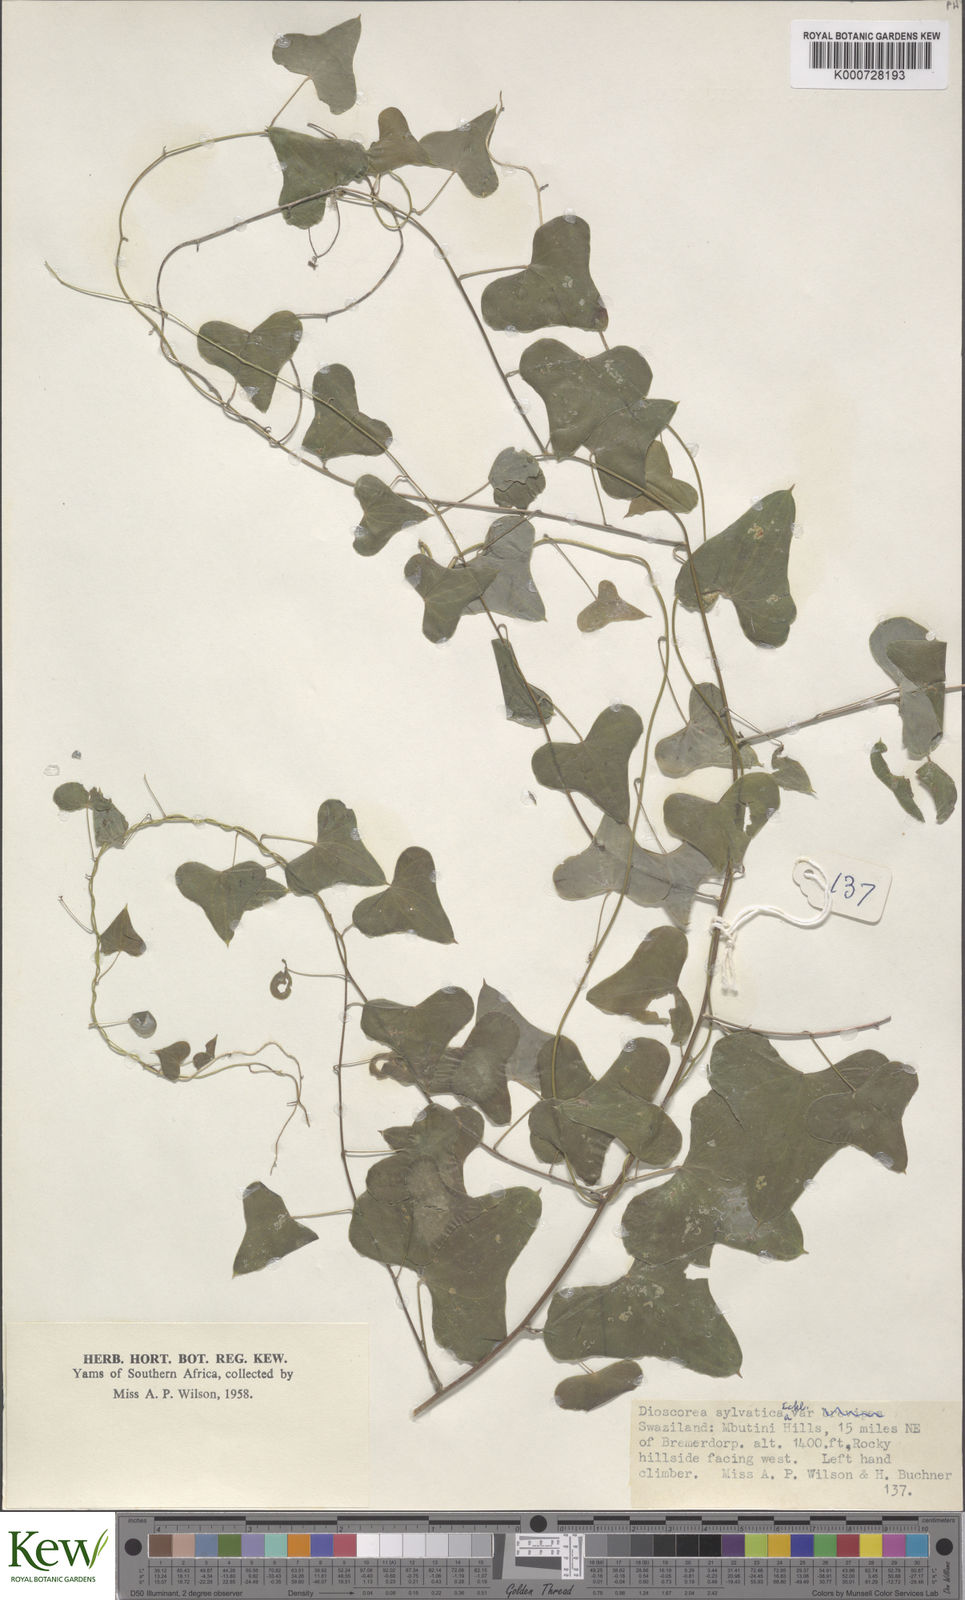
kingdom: Plantae
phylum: Tracheophyta
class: Liliopsida
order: Dioscoreales
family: Dioscoreaceae
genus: Dioscorea
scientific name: Dioscorea sylvatica
